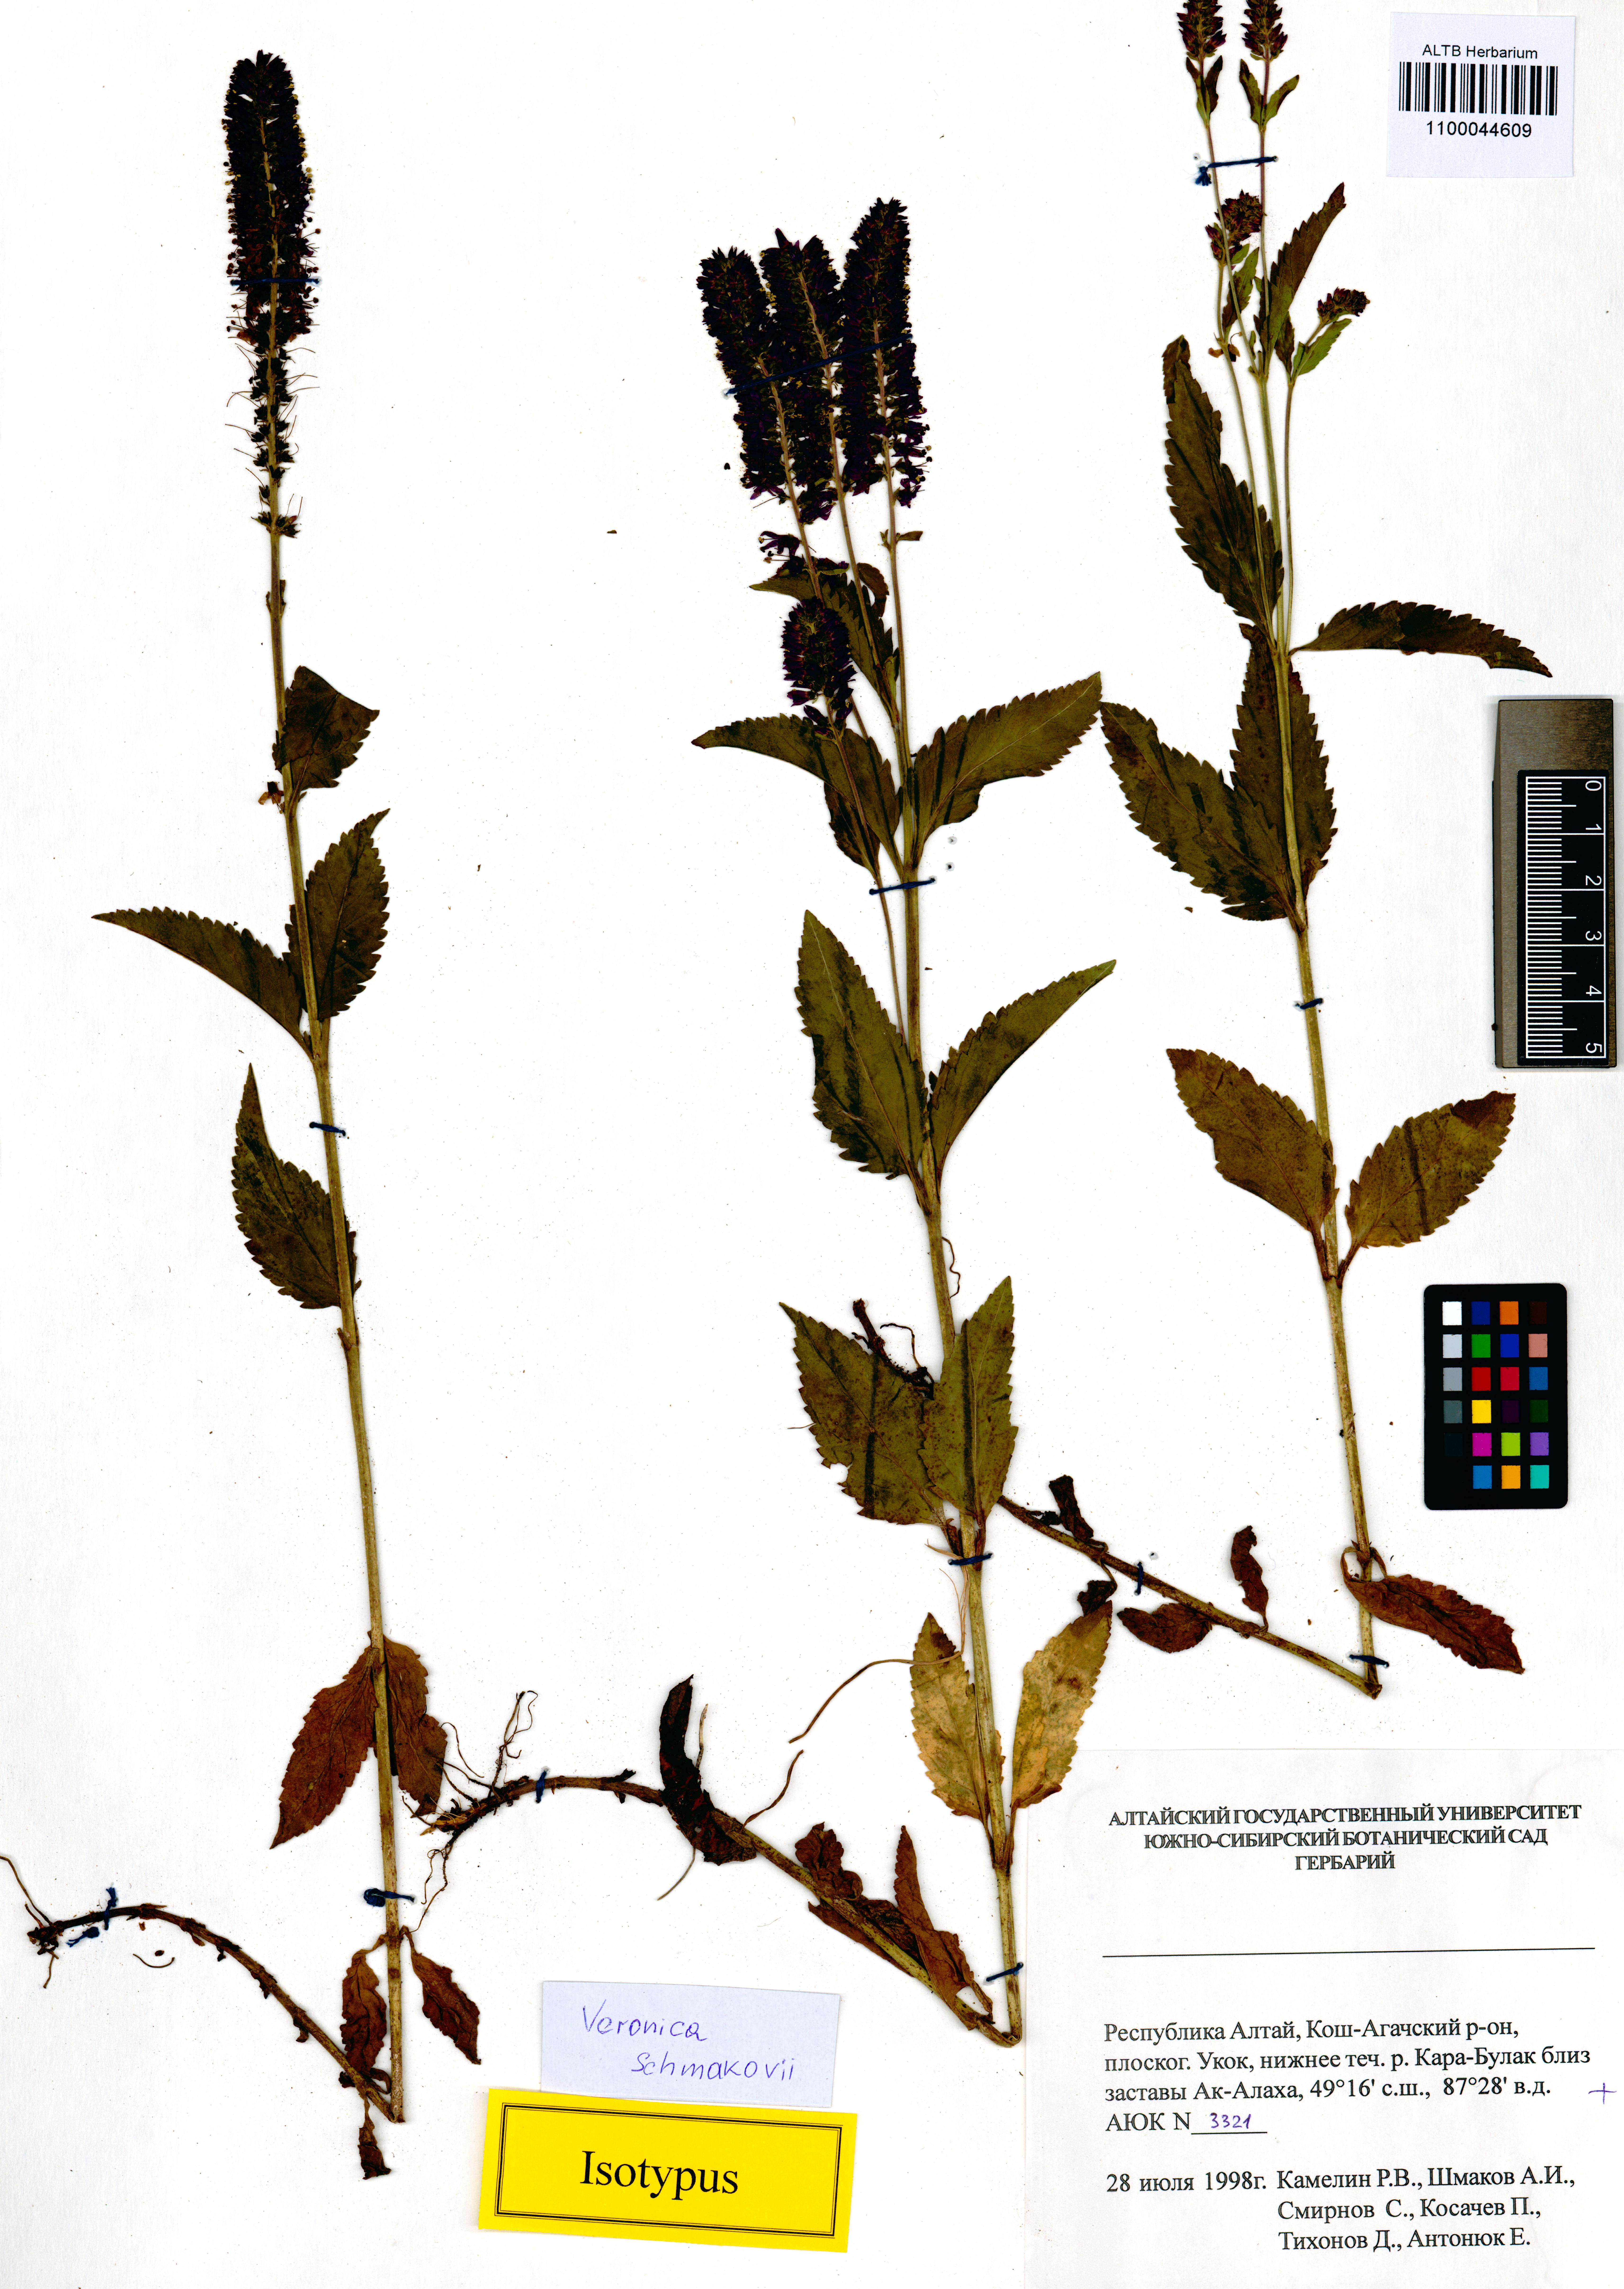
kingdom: Plantae
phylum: Tracheophyta
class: Magnoliopsida
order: Lamiales
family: Plantaginaceae
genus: Veronica
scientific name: Veronica schmakovii
